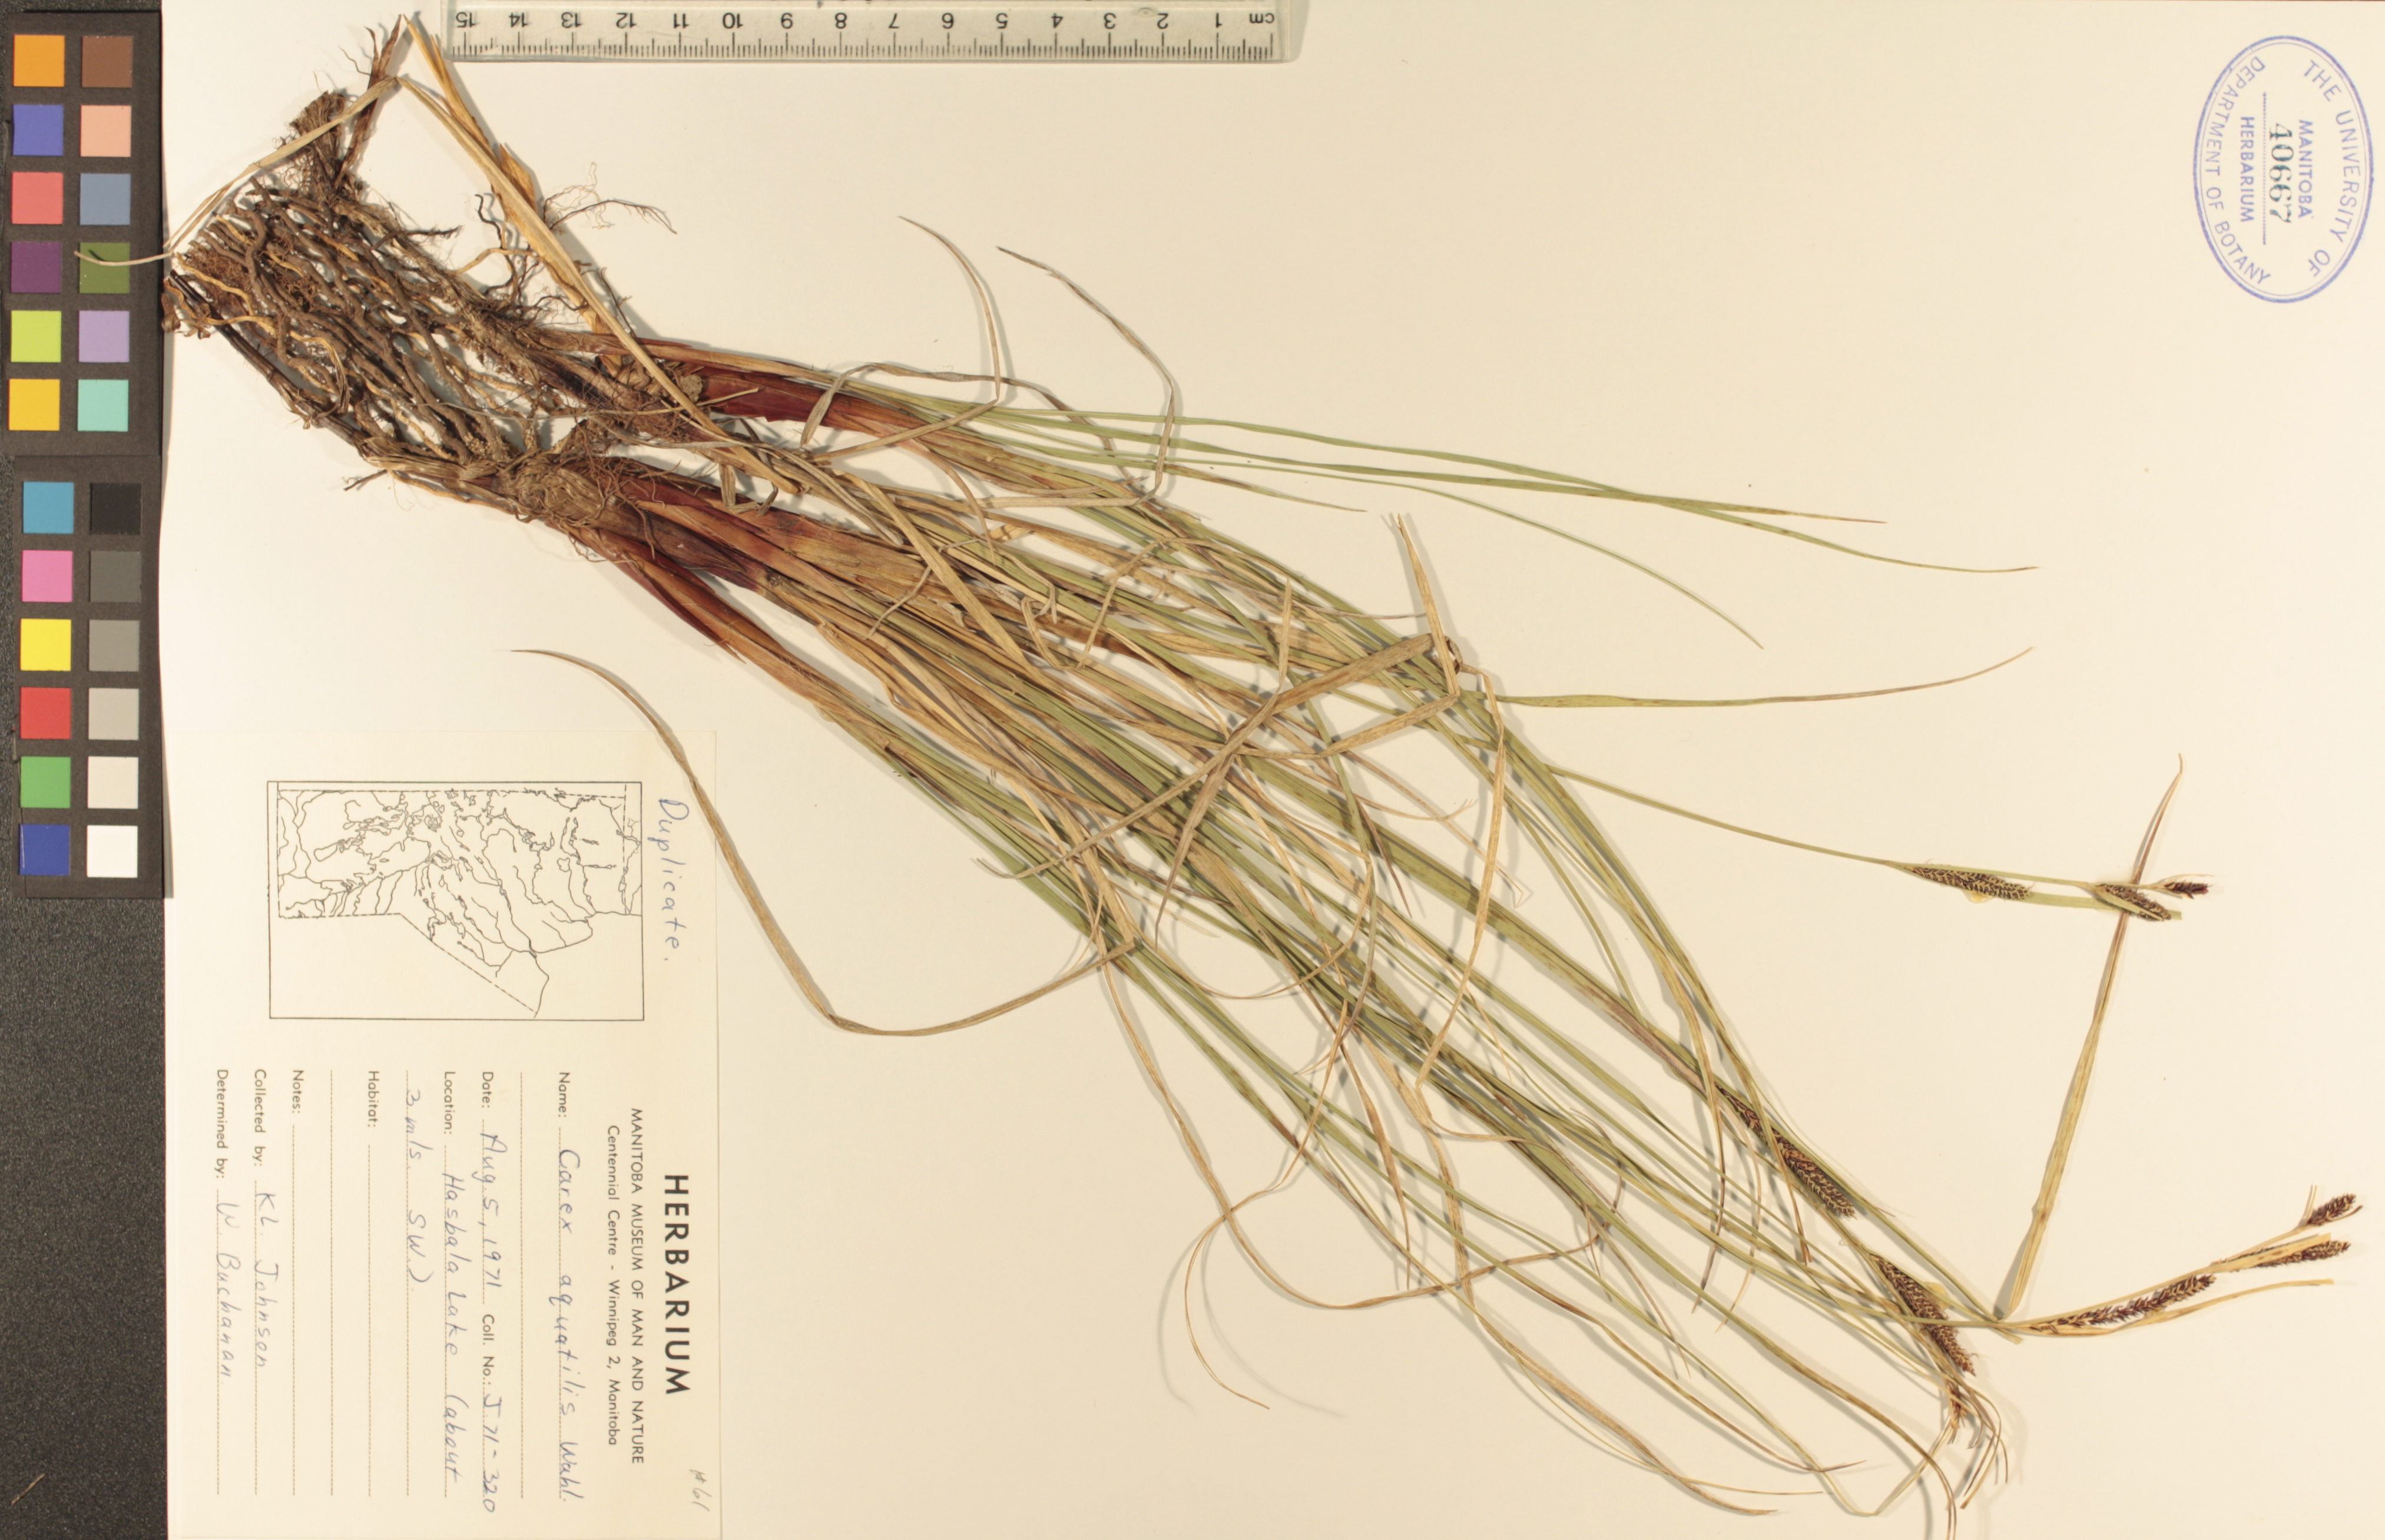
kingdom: Plantae
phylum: Tracheophyta
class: Liliopsida
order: Poales
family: Cyperaceae
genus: Carex
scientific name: Carex aquatilis
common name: Water sedge
